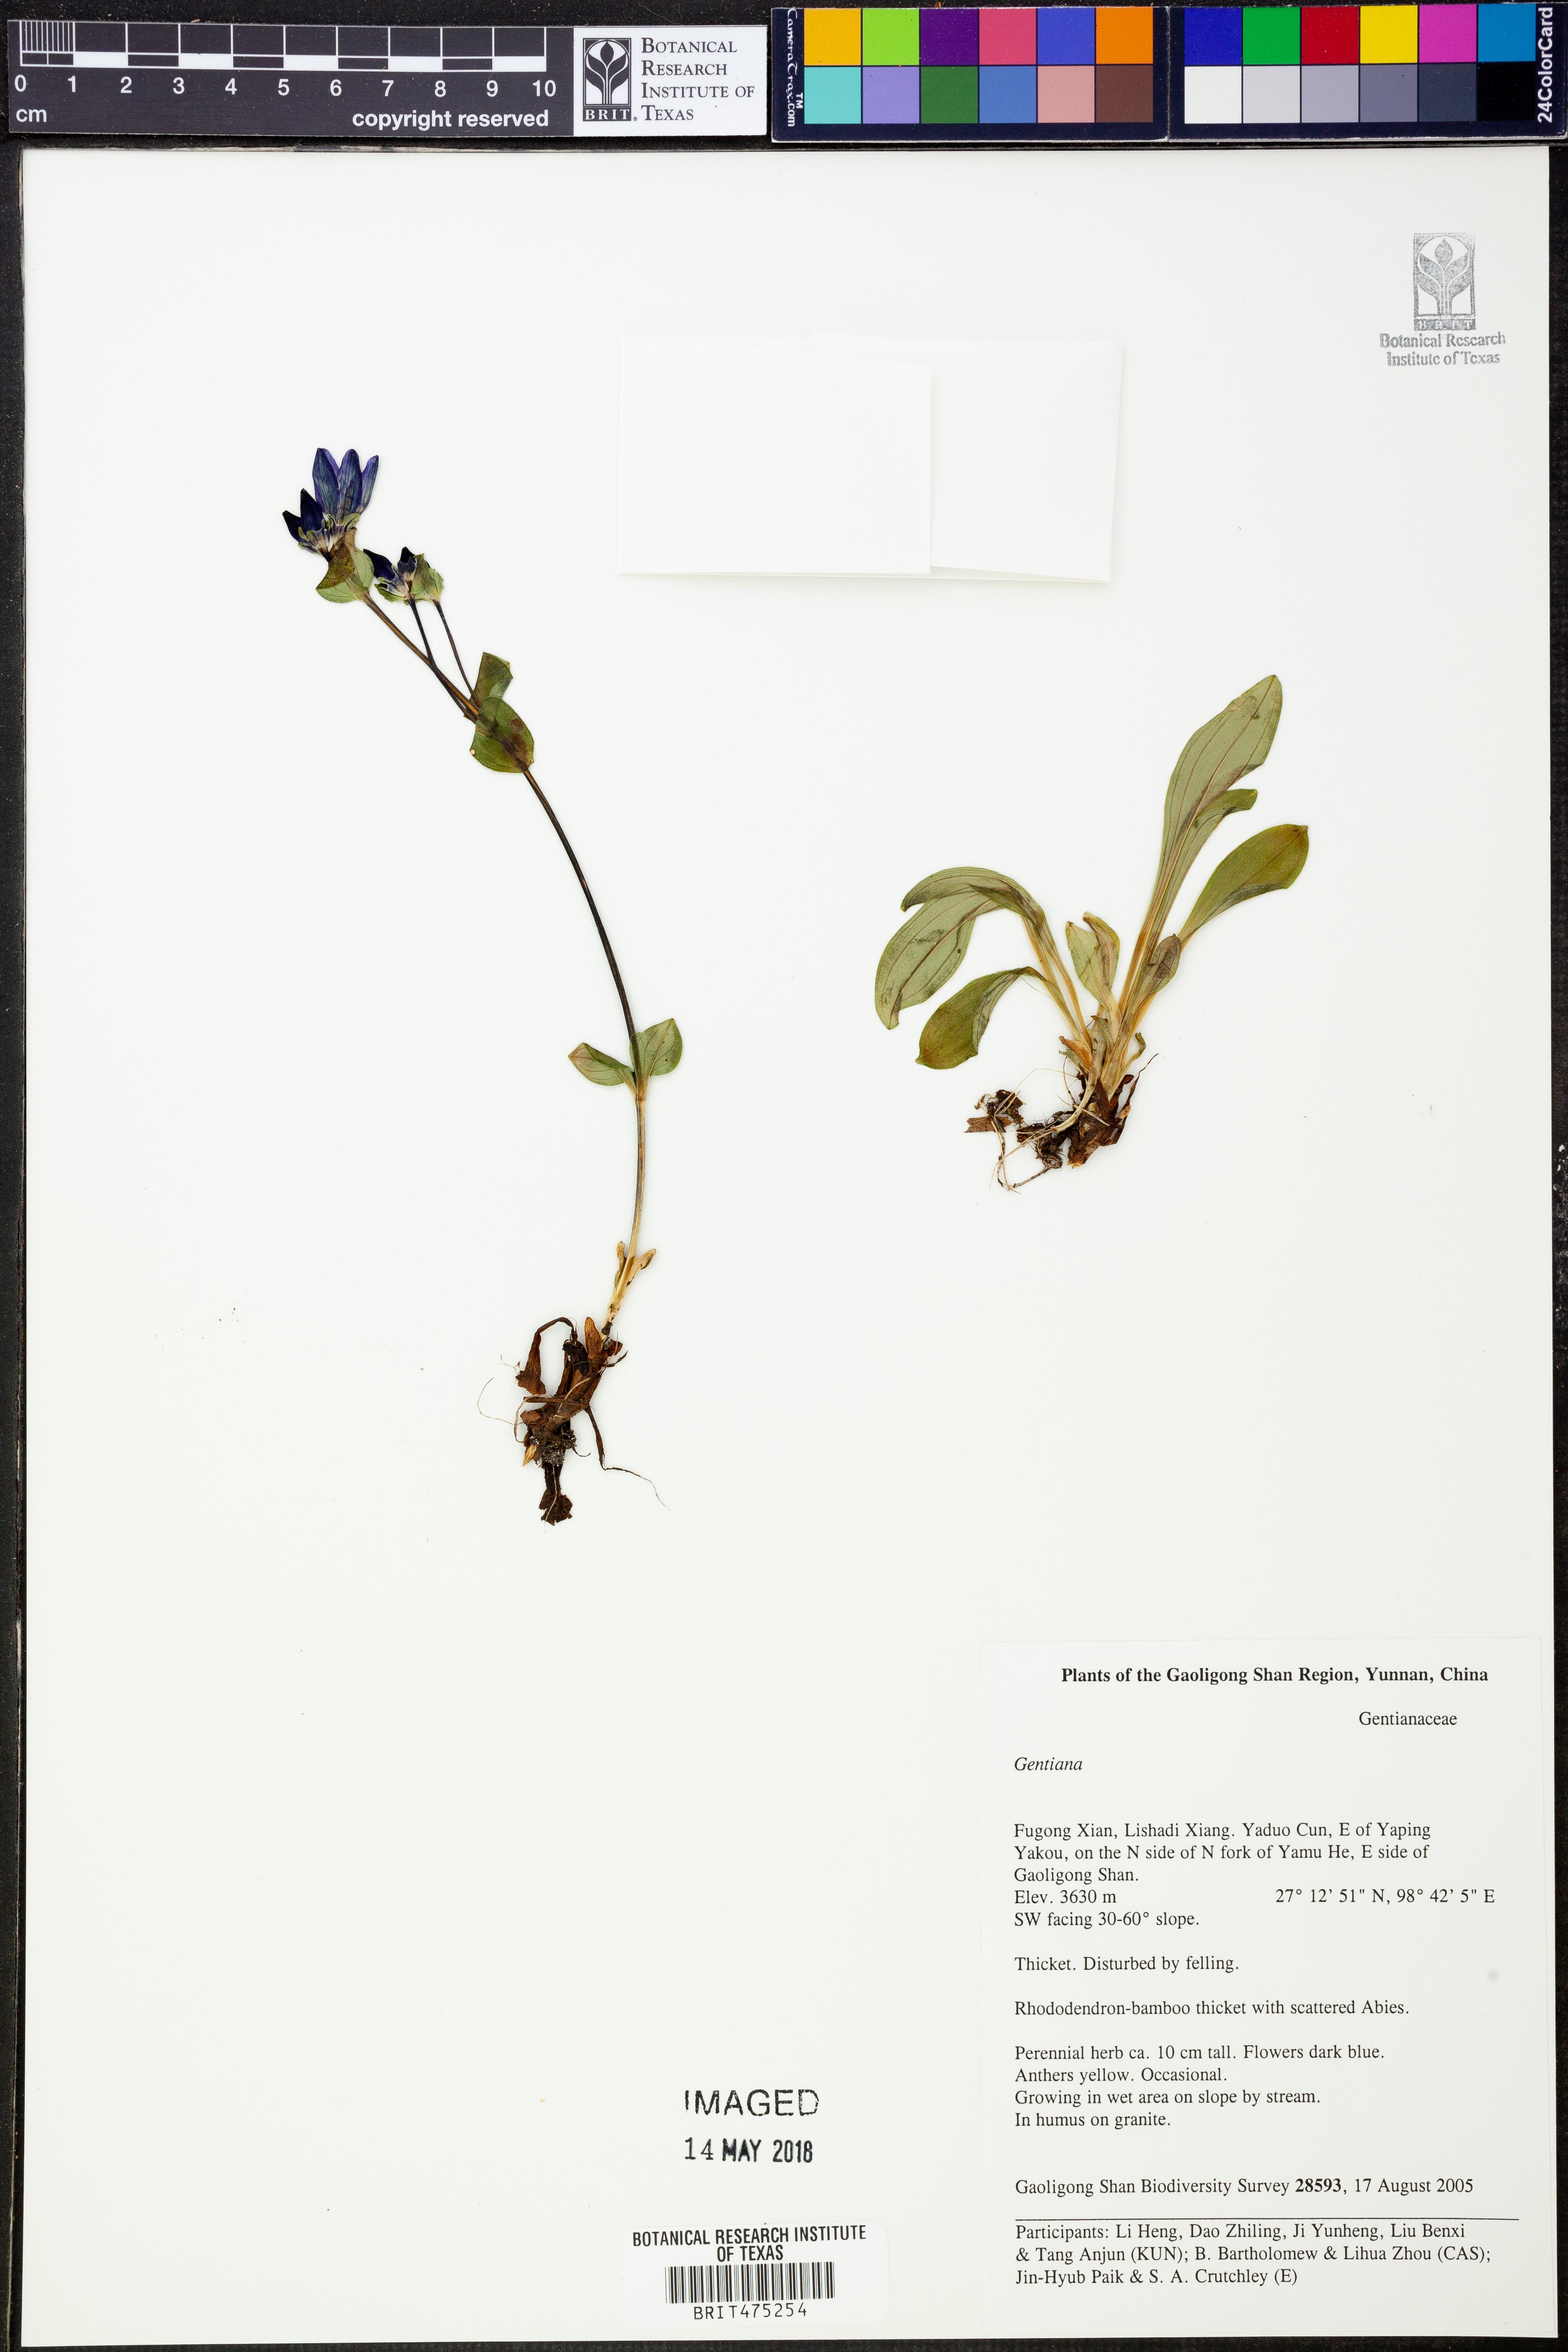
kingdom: Plantae
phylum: Tracheophyta
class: Magnoliopsida
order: Gentianales
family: Gentianaceae
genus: Gentiana
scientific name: Gentiana
